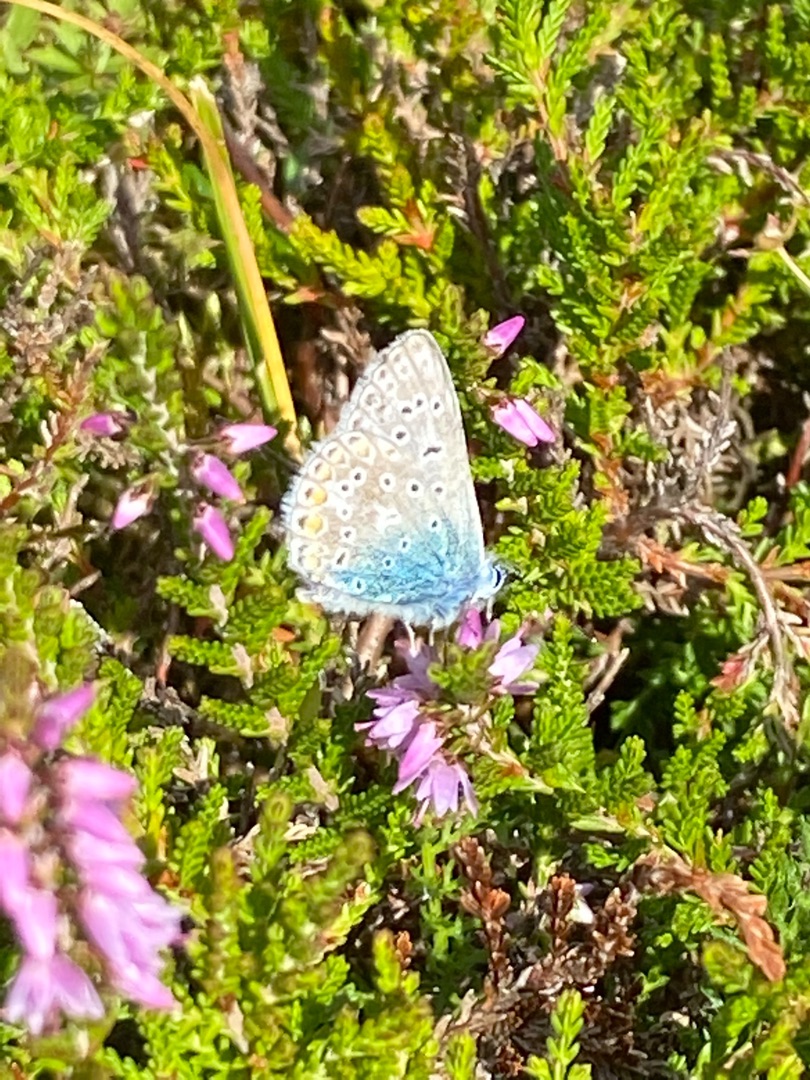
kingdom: Animalia
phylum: Arthropoda
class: Insecta
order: Lepidoptera
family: Lycaenidae
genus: Polyommatus
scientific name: Polyommatus icarus
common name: Almindelig blåfugl
